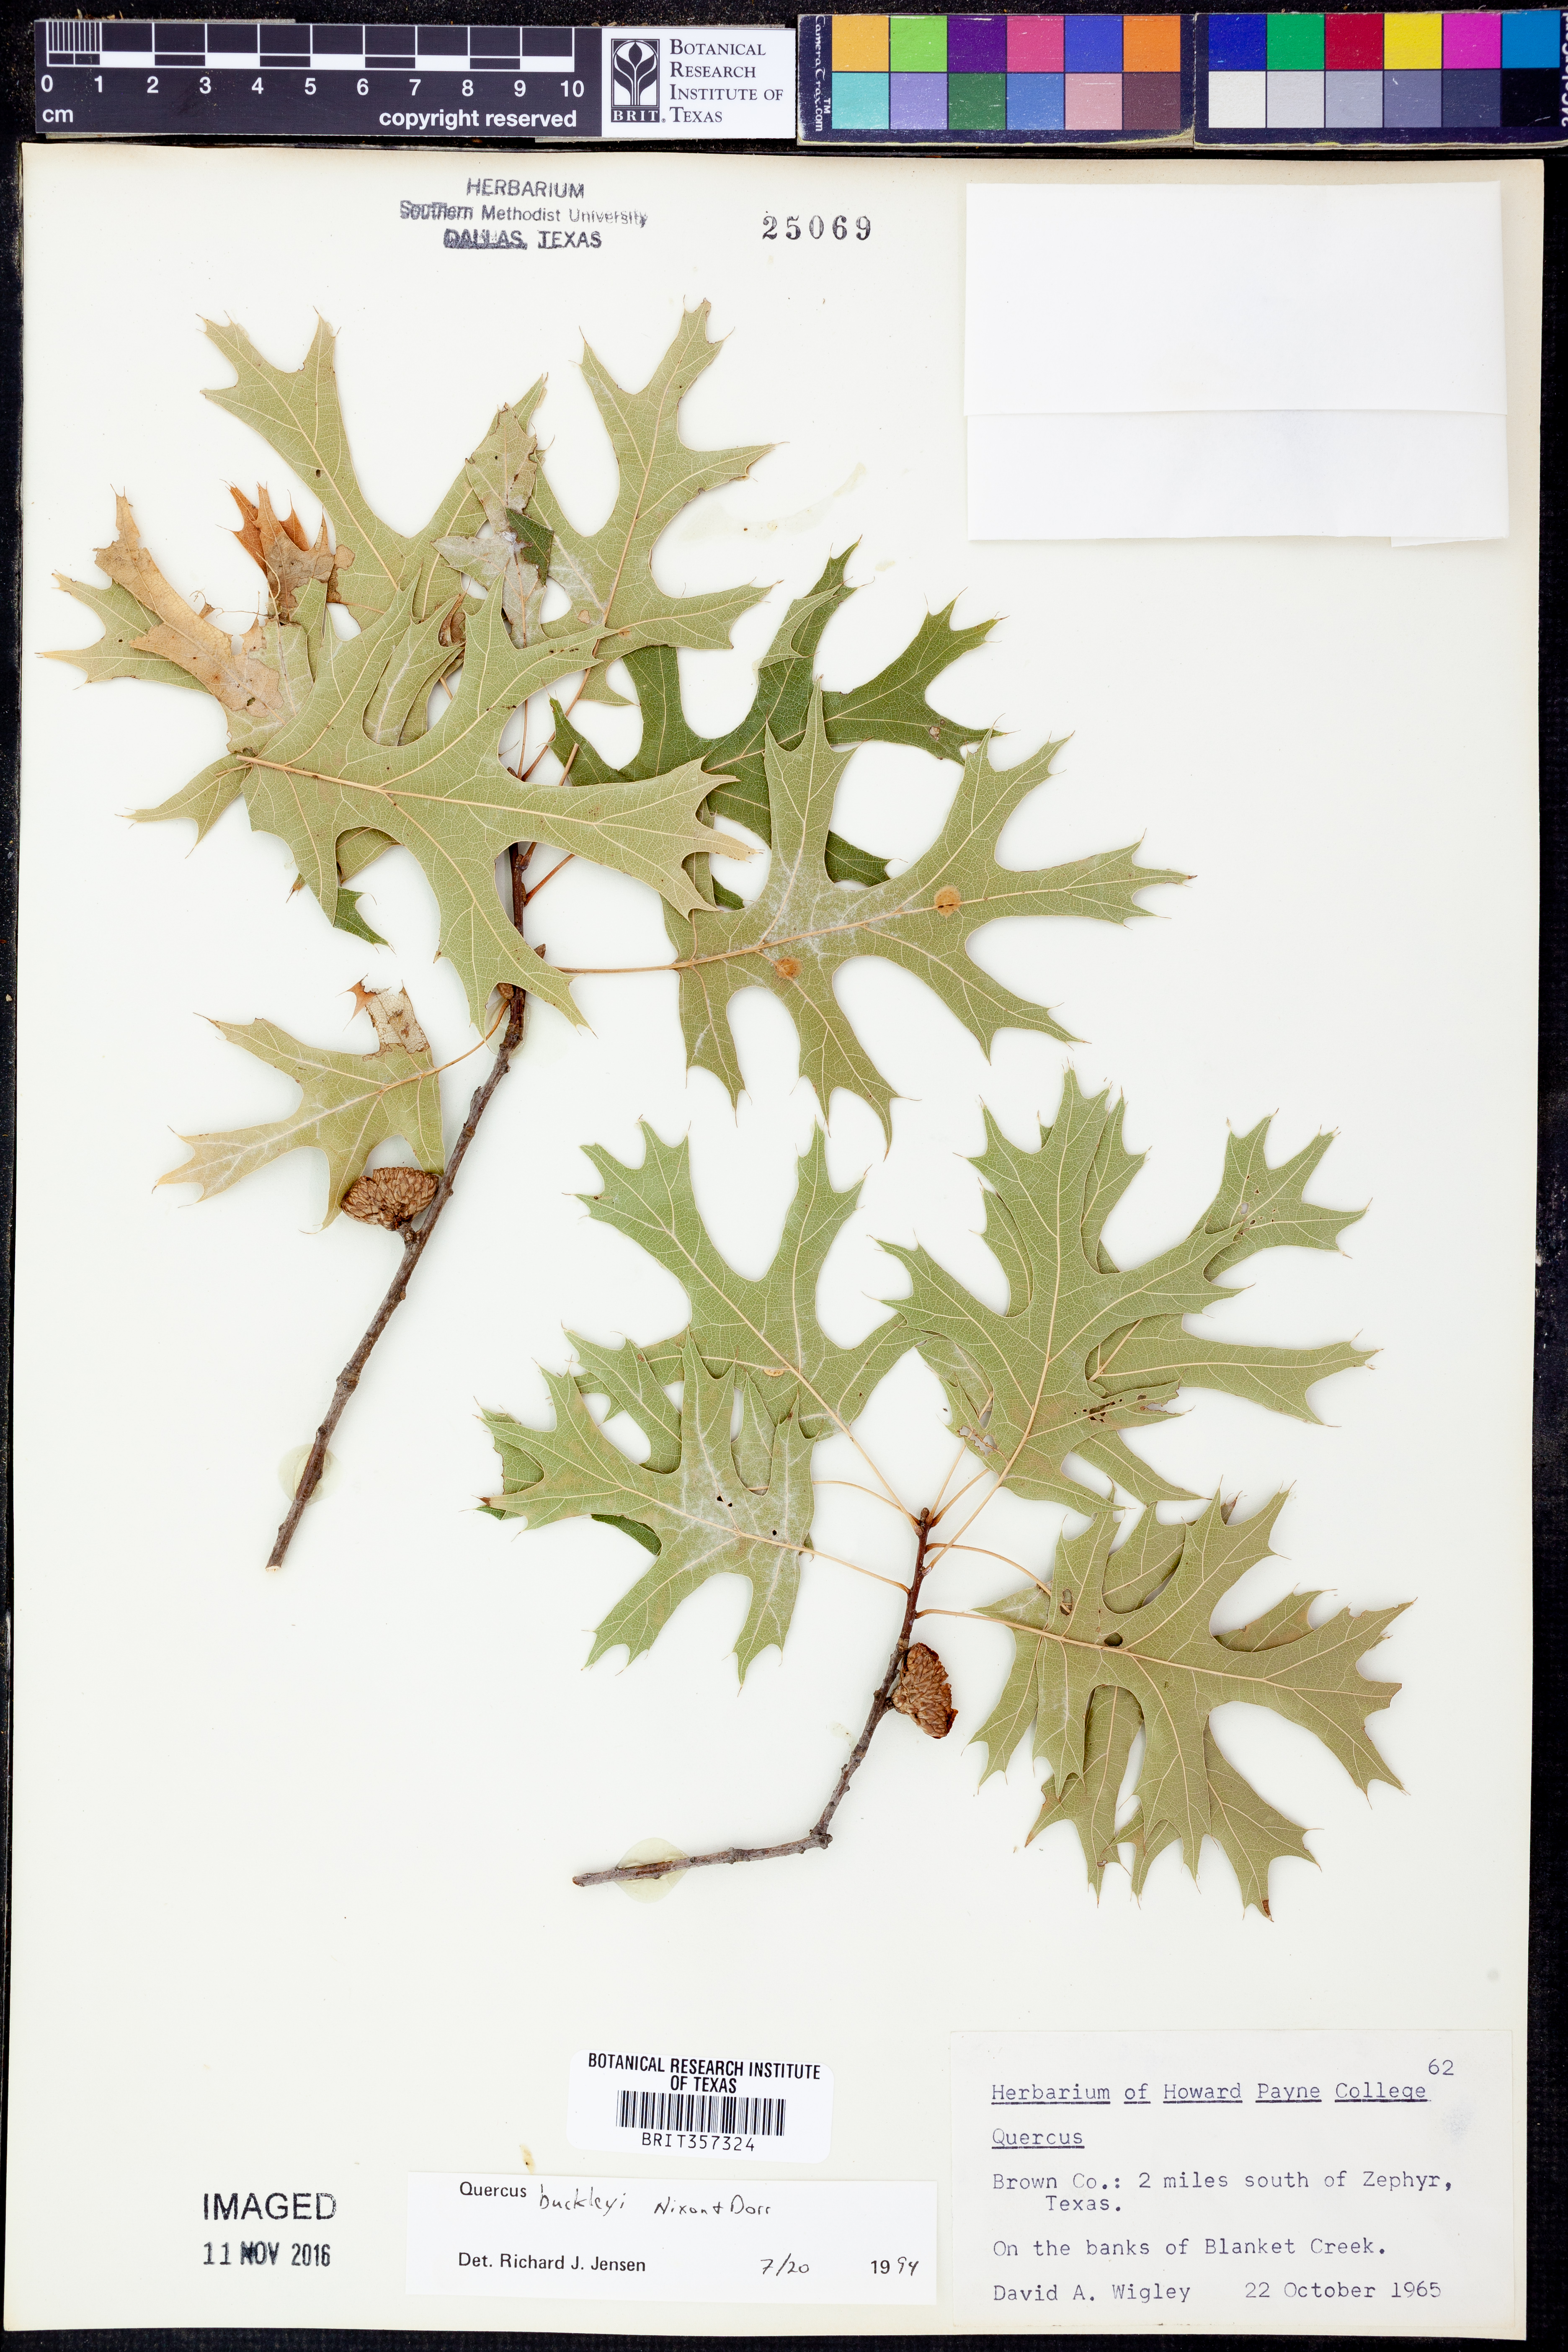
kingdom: Plantae
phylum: Tracheophyta
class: Magnoliopsida
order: Fagales
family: Fagaceae
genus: Quercus
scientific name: Quercus buckleyi
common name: Buckley oak
